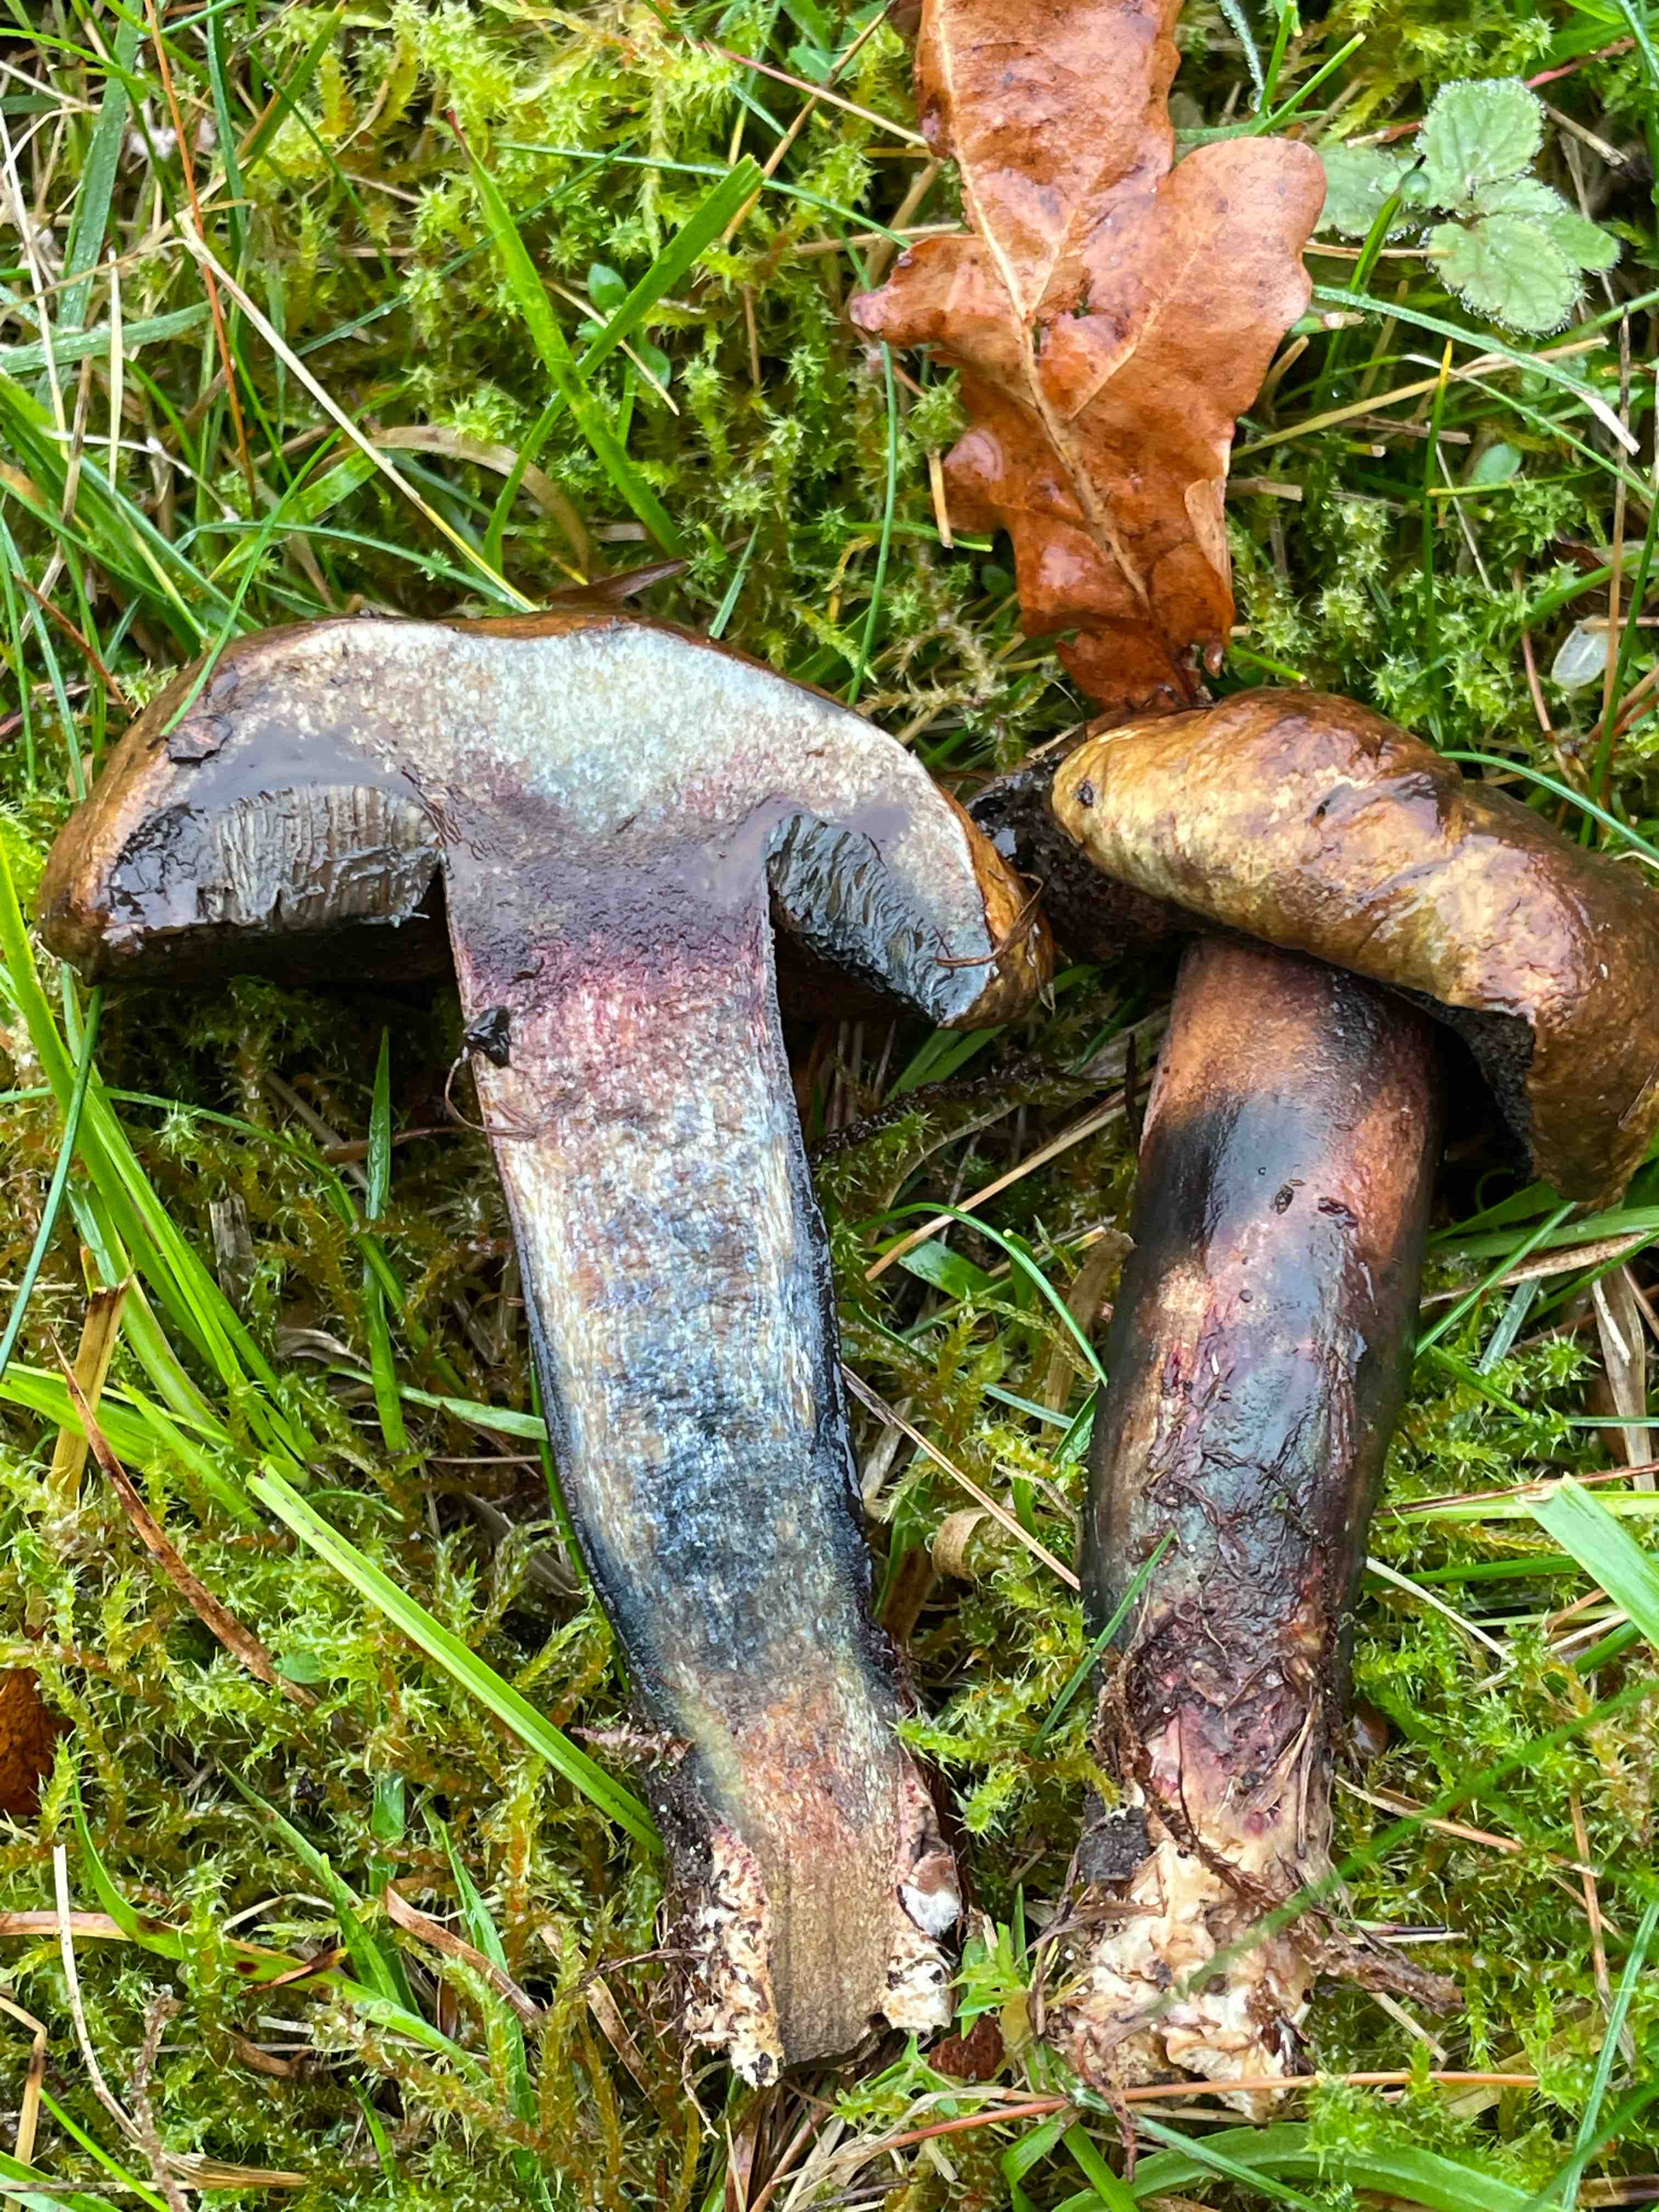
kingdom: Fungi
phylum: Basidiomycota
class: Agaricomycetes
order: Boletales
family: Boletaceae
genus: Cyanoboletus
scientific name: Cyanoboletus pulverulentus
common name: sortblånende rørhat
